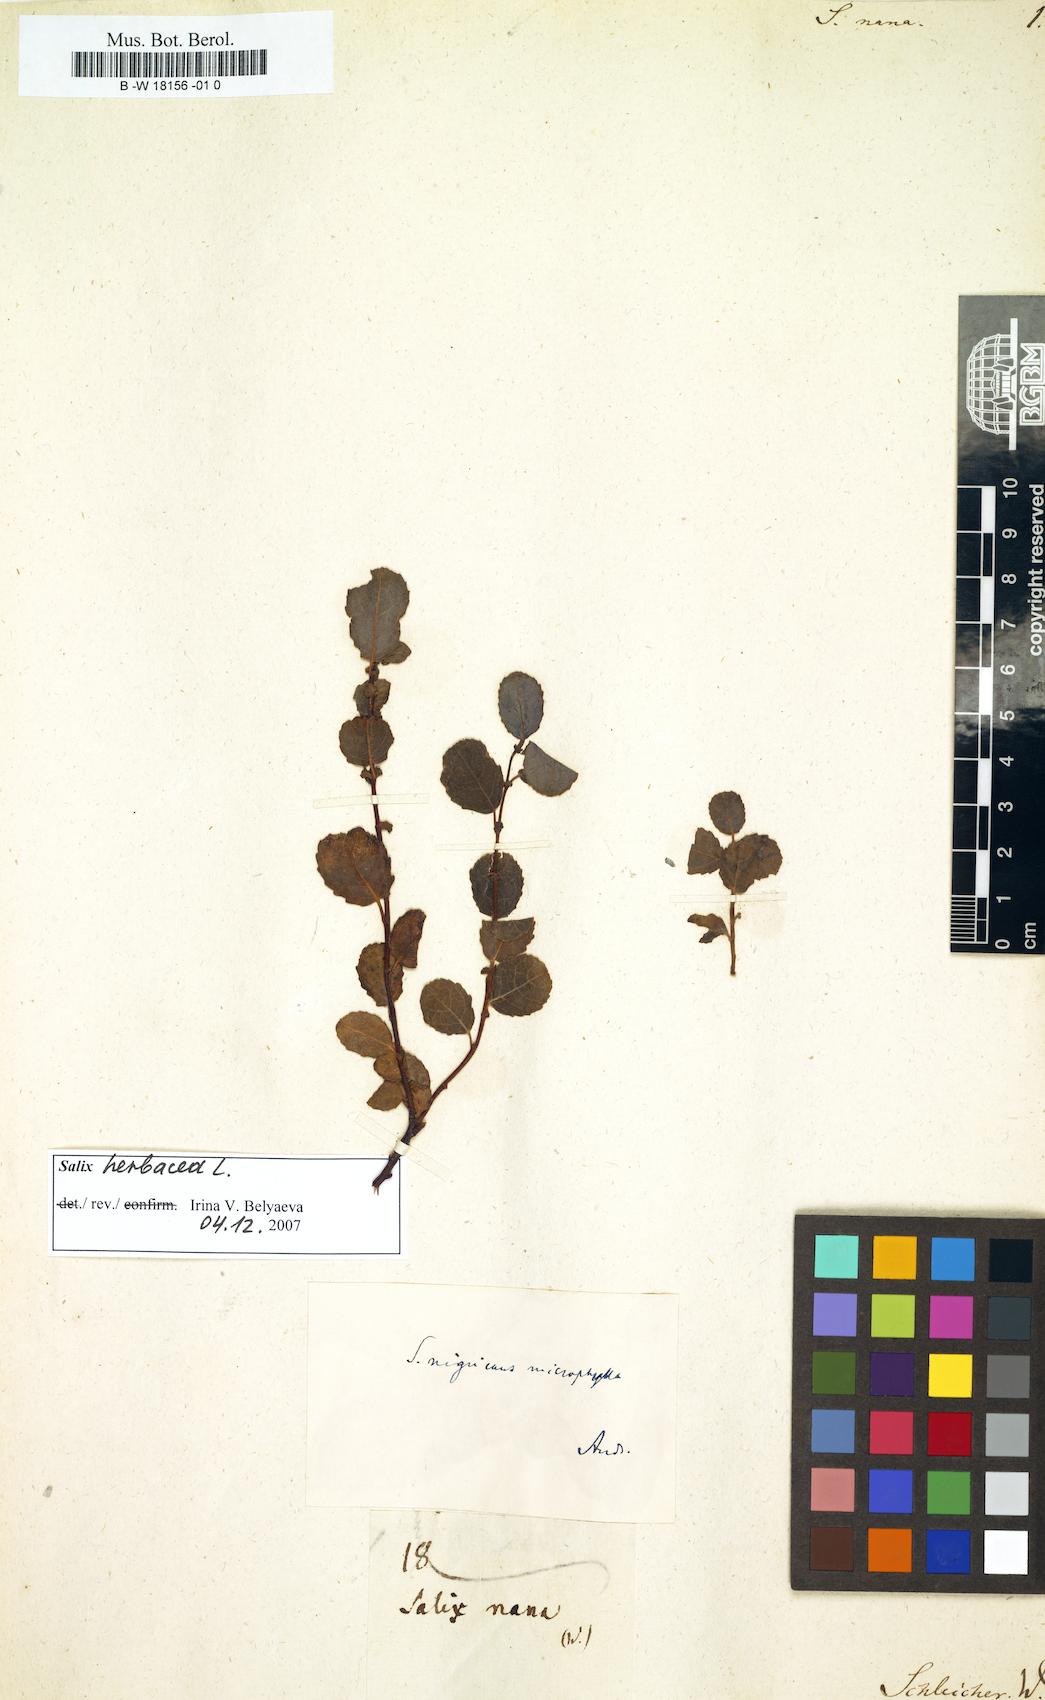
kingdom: Plantae
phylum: Tracheophyta
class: Magnoliopsida
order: Malpighiales
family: Salicaceae
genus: Salix
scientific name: Salix felina
